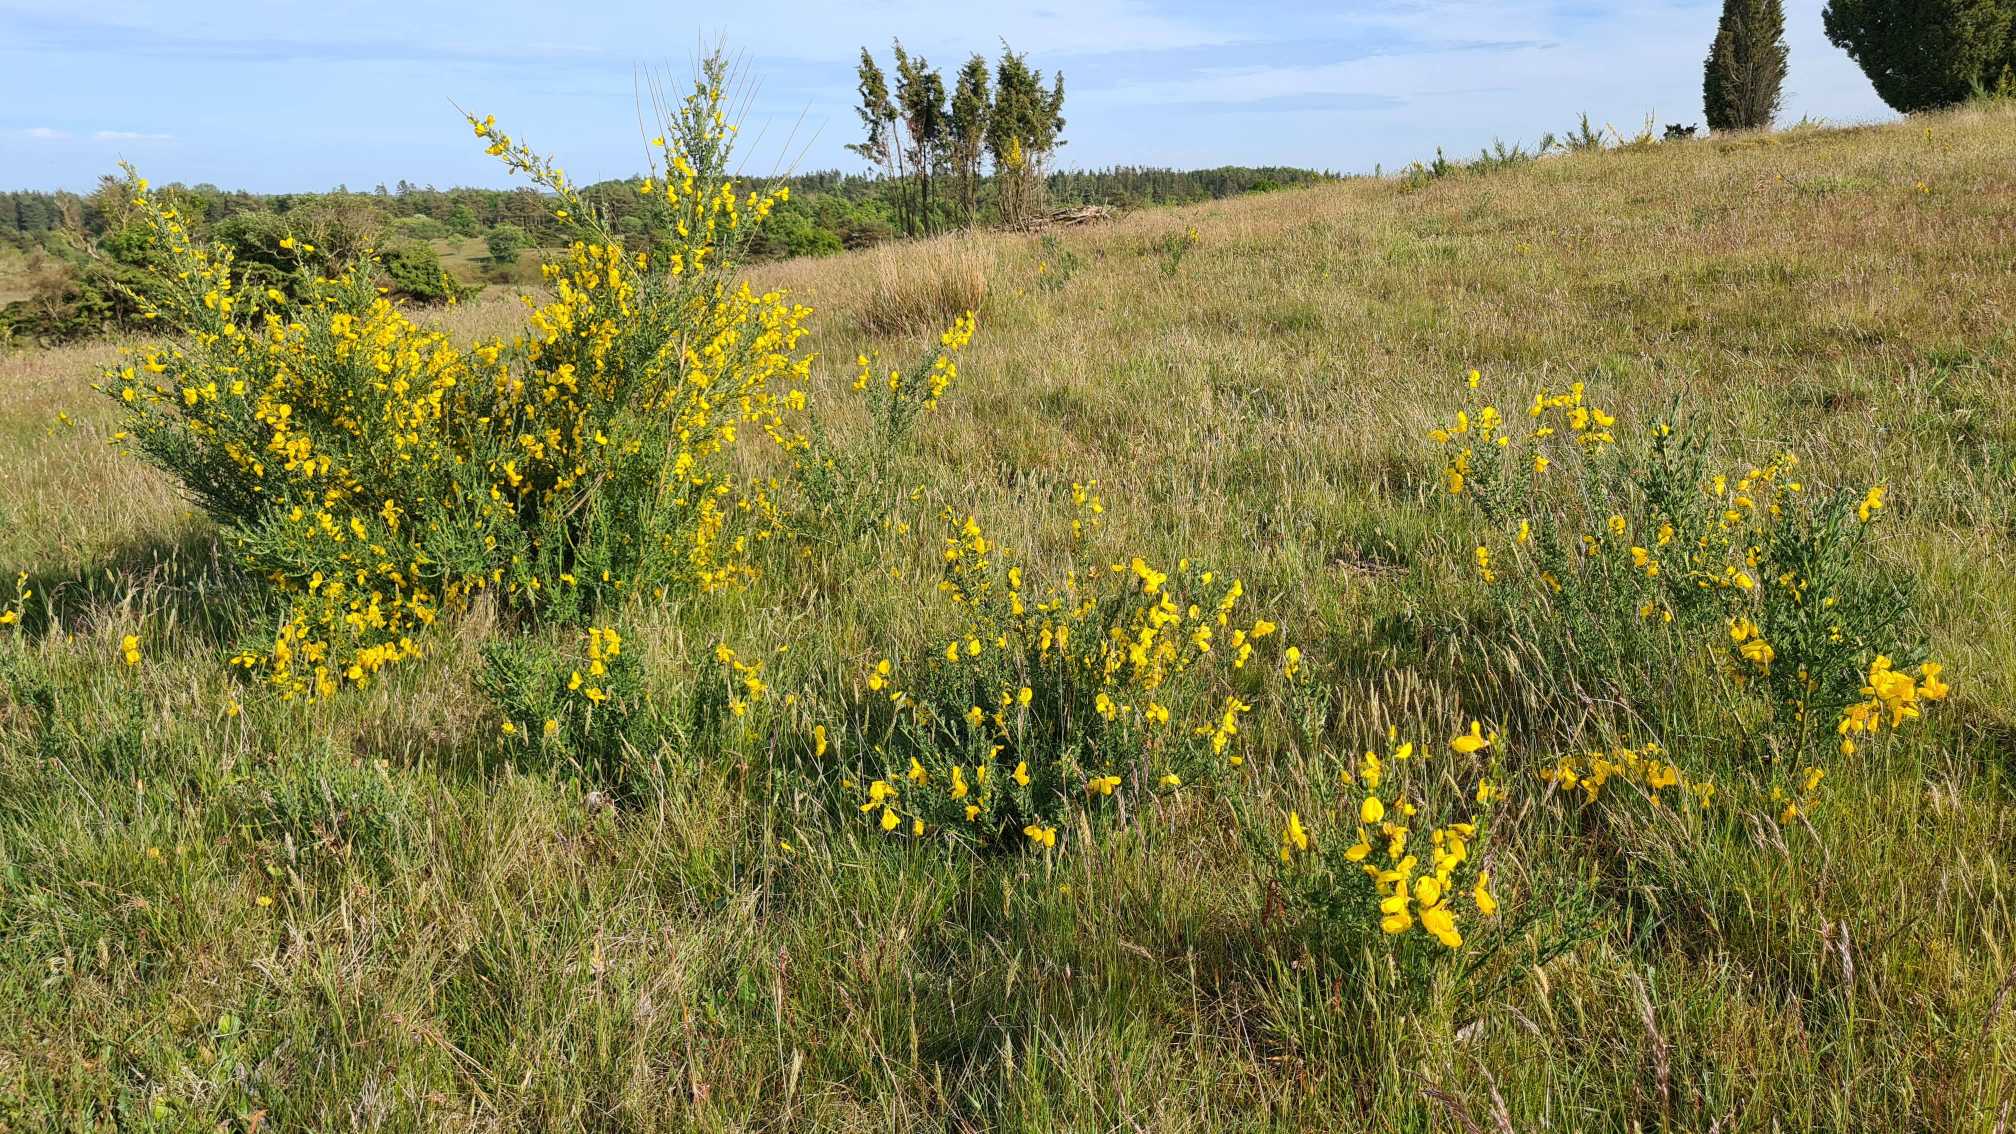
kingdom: Plantae
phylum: Tracheophyta
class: Magnoliopsida
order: Fabales
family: Fabaceae
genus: Cytisus
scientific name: Cytisus scoparius
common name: Almindelig gyvel (underart)
